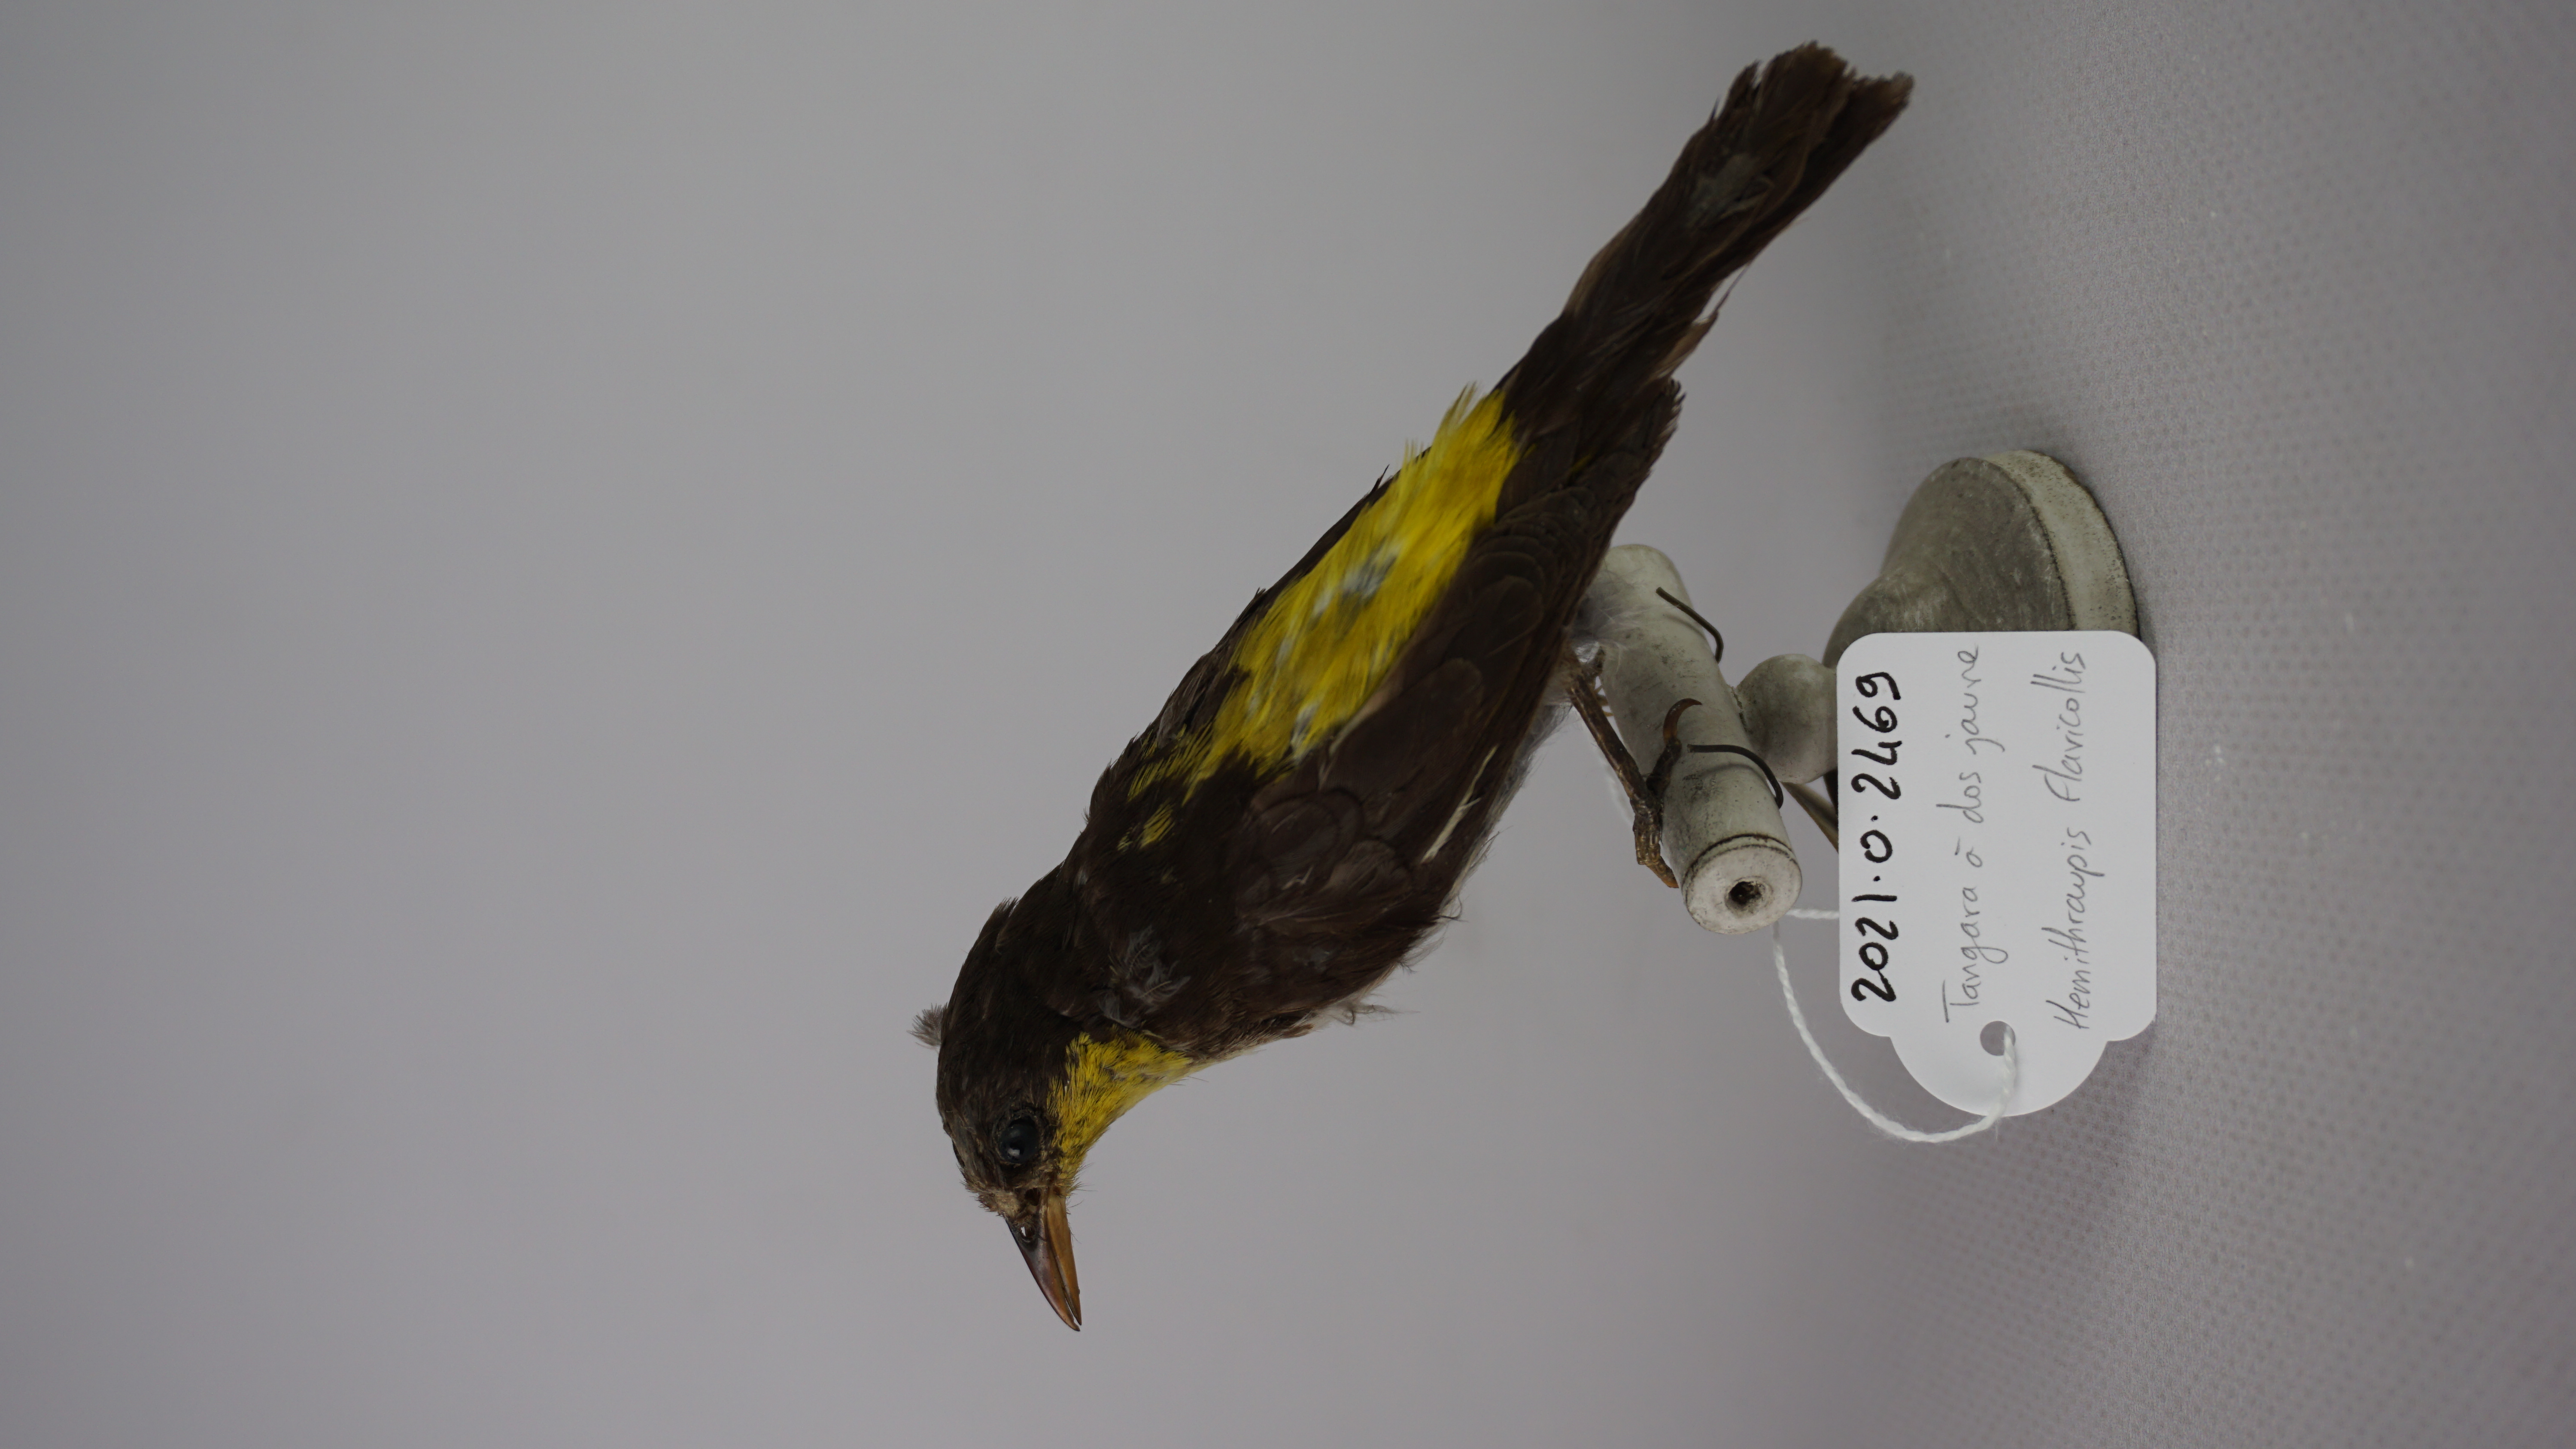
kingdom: Animalia
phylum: Chordata
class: Aves
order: Passeriformes
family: Thraupidae
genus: Hemithraupis
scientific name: Hemithraupis flavicollis
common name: Yellow-backed tanager
